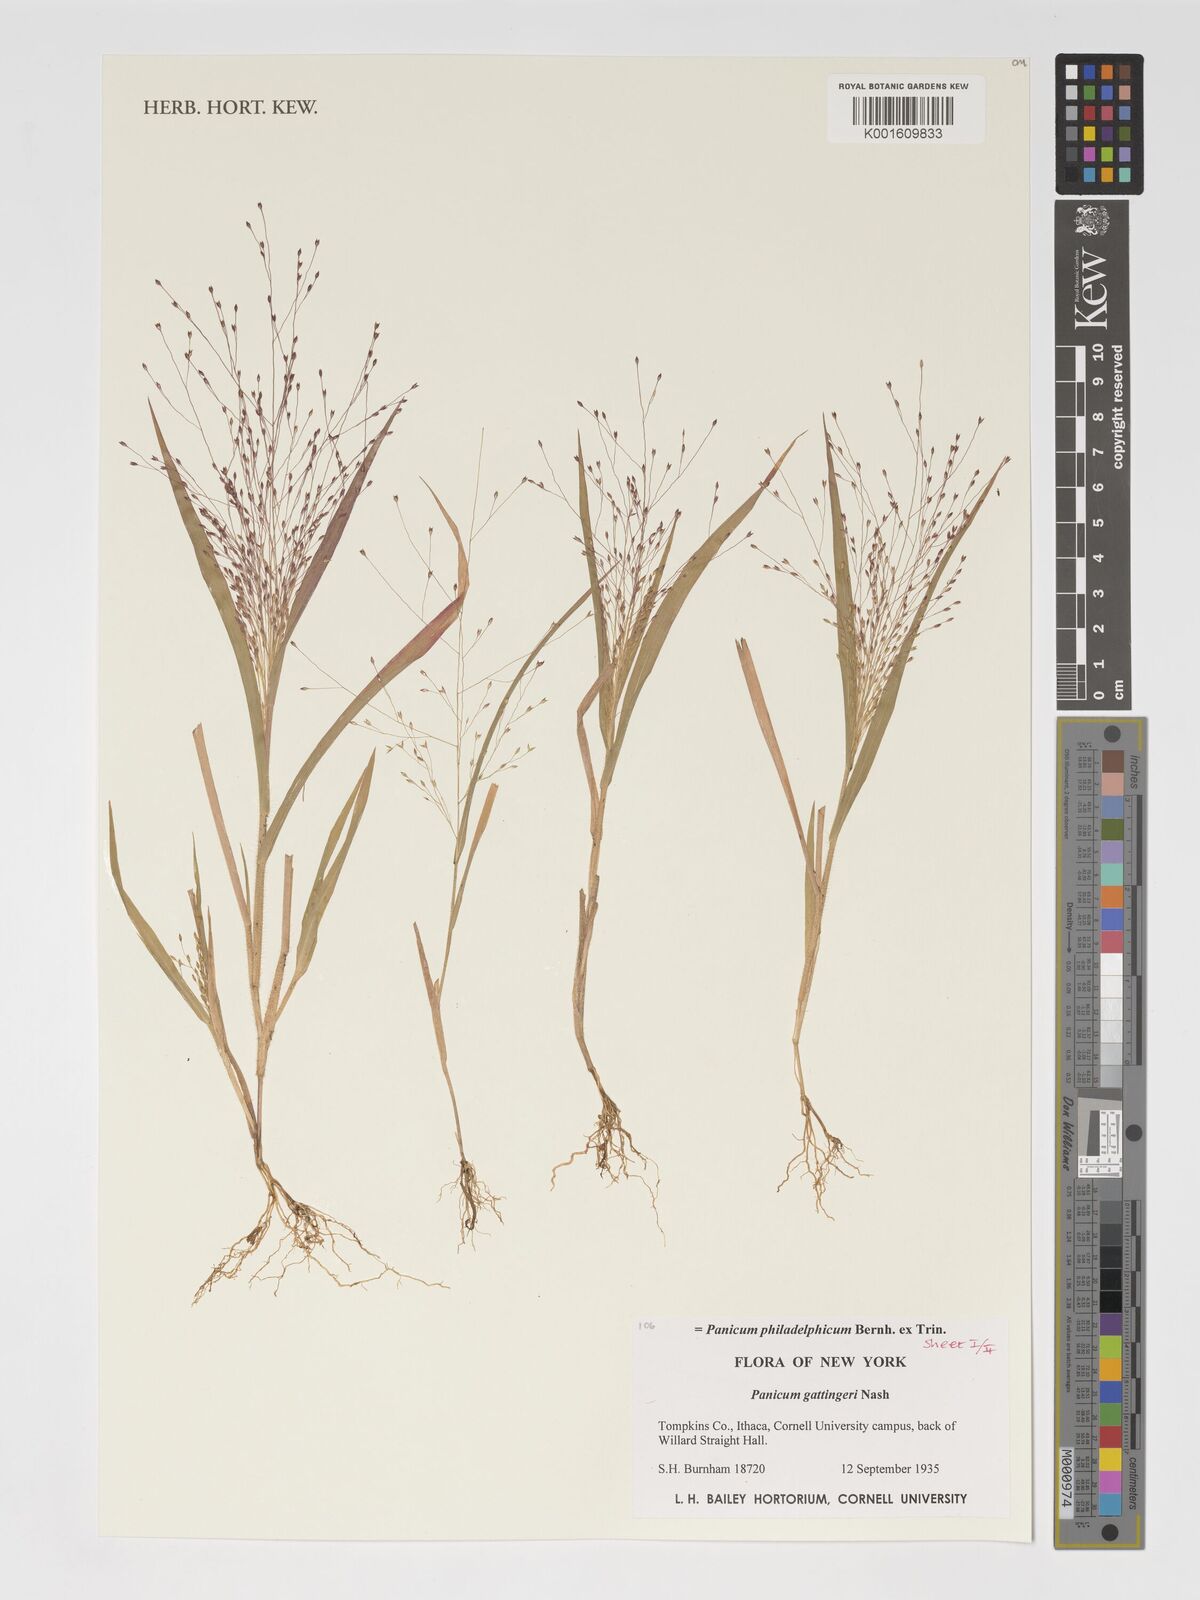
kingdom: Plantae
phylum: Tracheophyta
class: Liliopsida
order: Poales
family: Poaceae
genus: Panicum
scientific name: Panicum philadelphicum
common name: Philadelphia witchgrass
